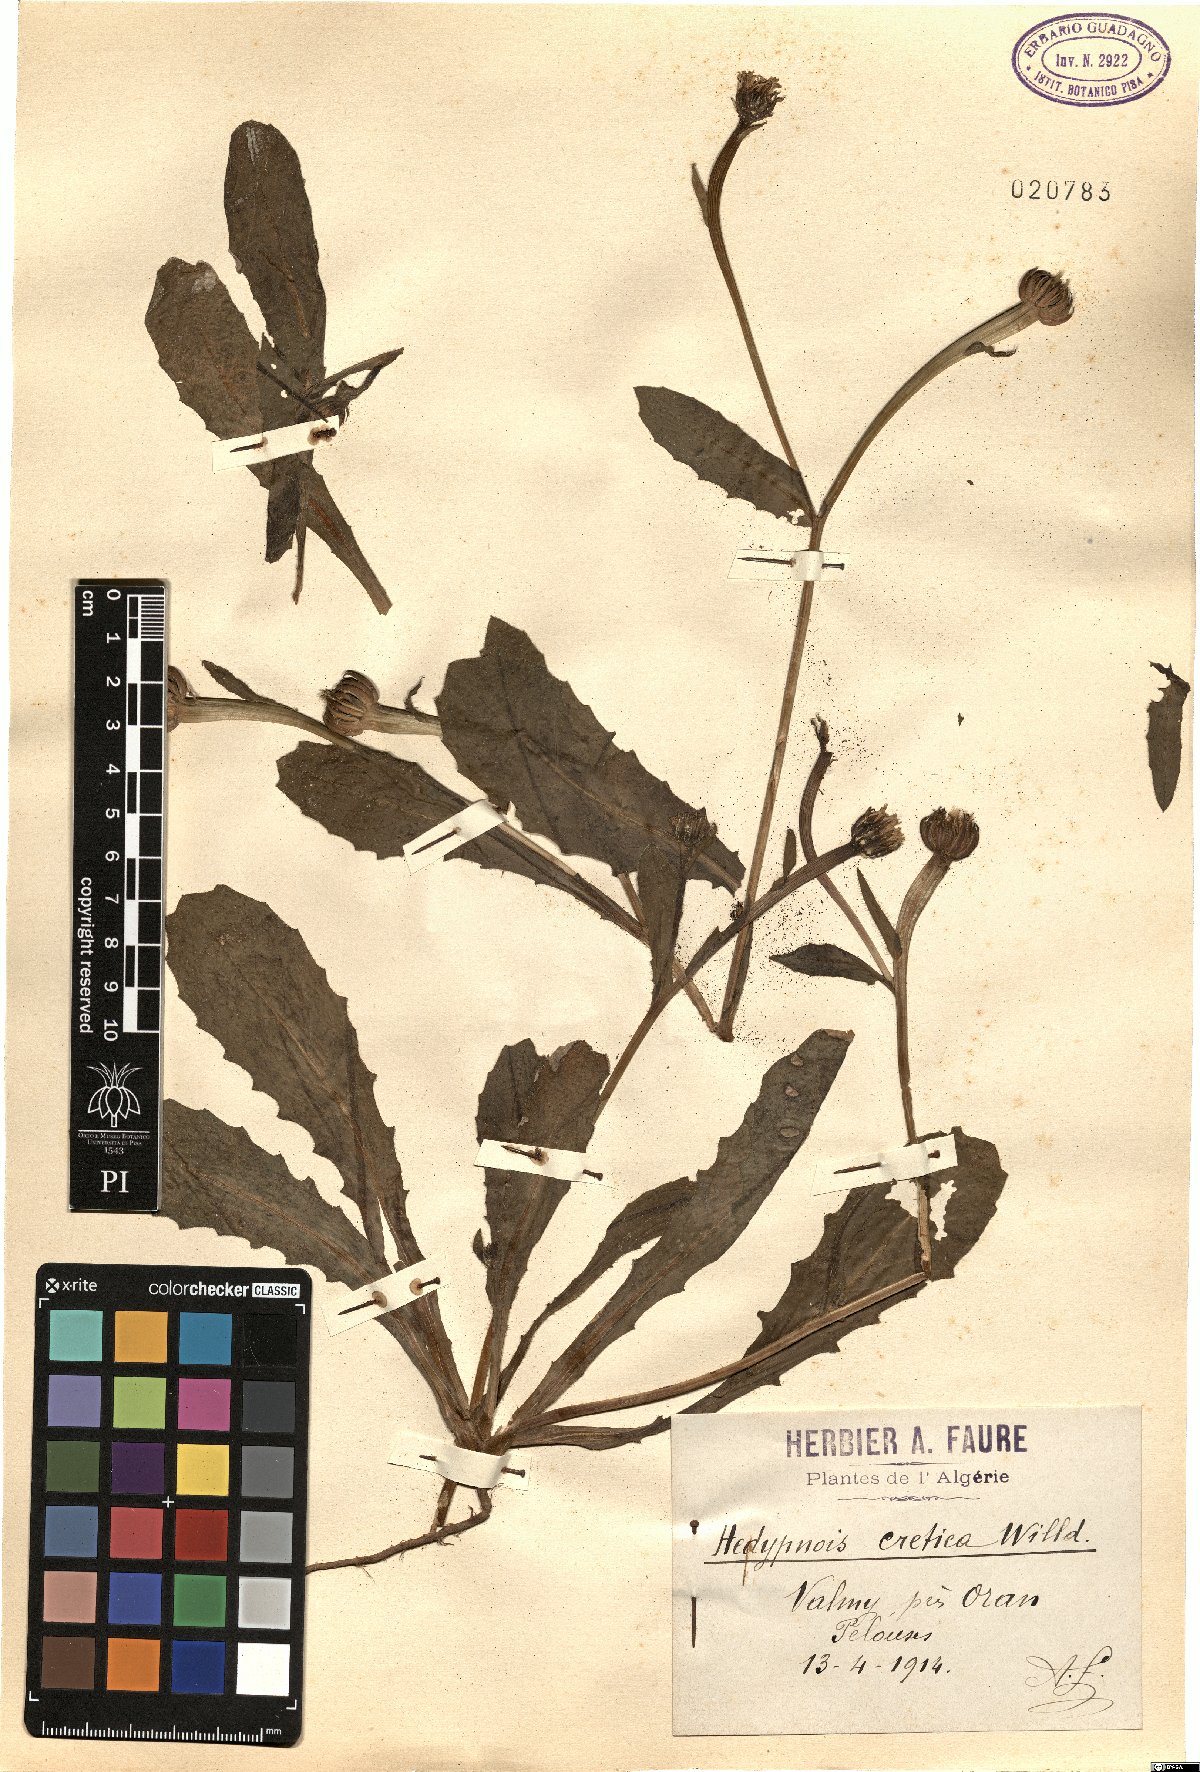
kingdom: Plantae
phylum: Tracheophyta
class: Magnoliopsida
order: Asterales
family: Asteraceae
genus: Hedypnois
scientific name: Hedypnois rhagadioloides
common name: Cretan weed
